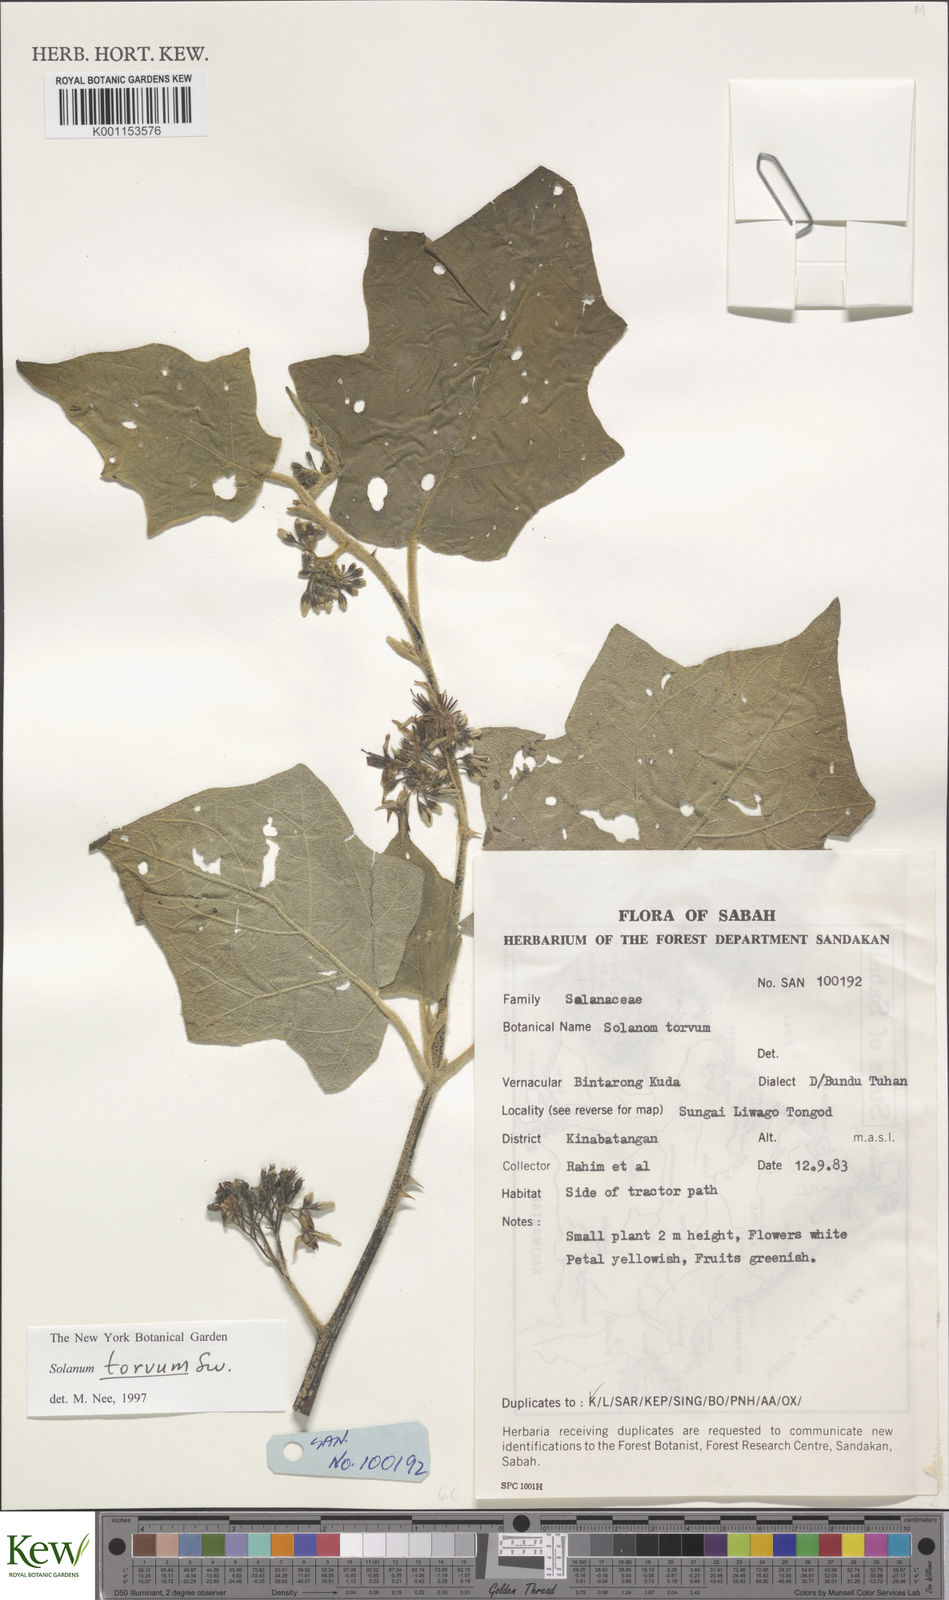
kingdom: Plantae
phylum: Tracheophyta
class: Magnoliopsida
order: Solanales
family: Solanaceae
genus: Solanum
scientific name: Solanum torvum
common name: Turkey berry
